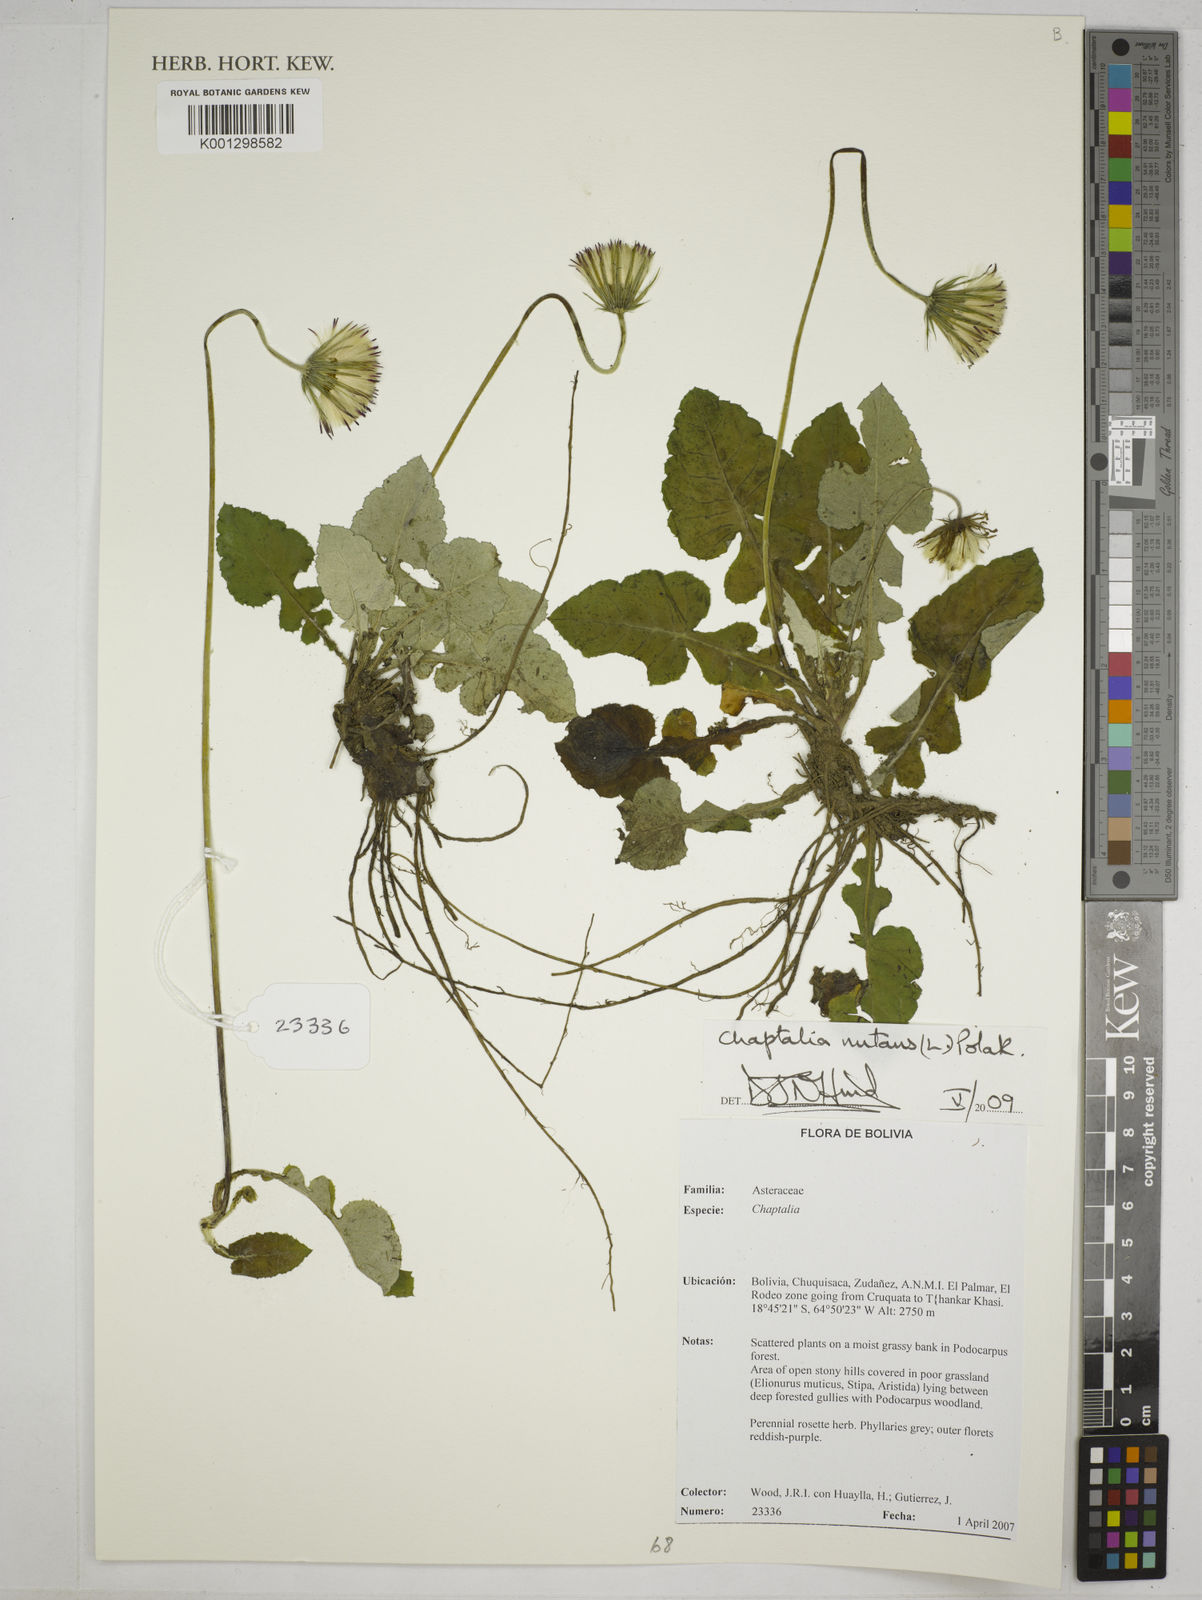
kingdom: Plantae
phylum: Tracheophyta
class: Magnoliopsida
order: Asterales
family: Asteraceae
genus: Chaptalia
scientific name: Chaptalia nutans
